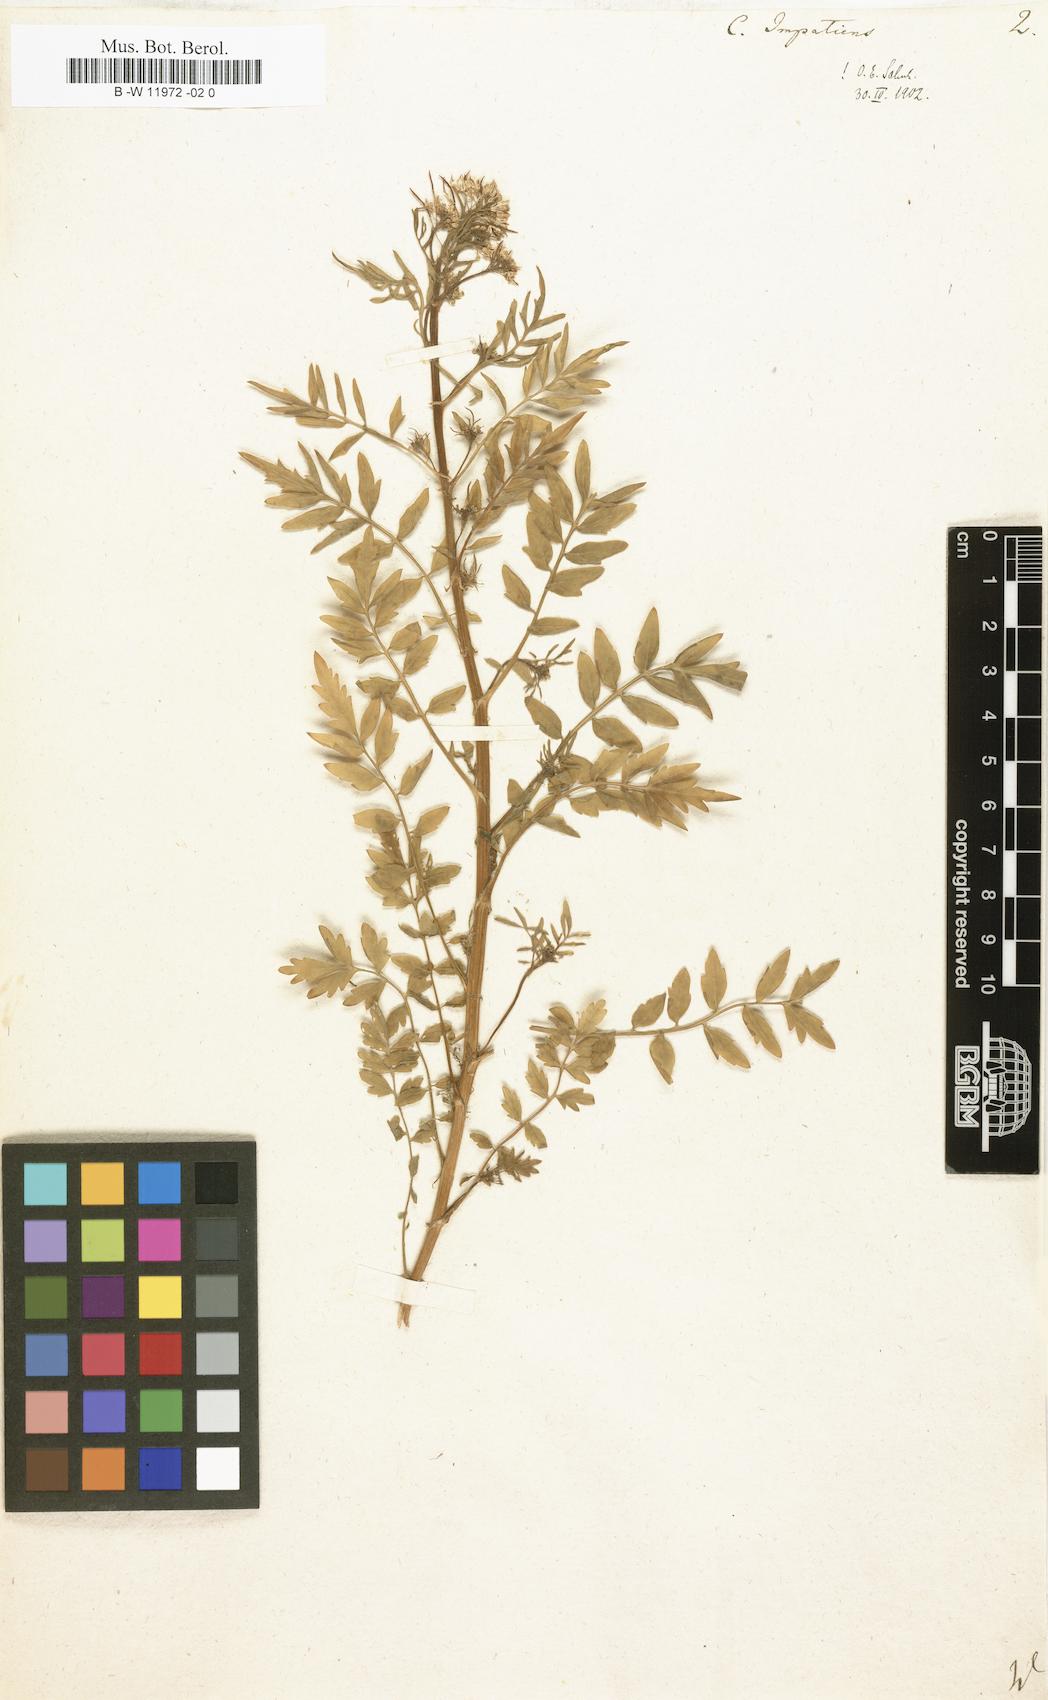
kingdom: Plantae
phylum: Tracheophyta
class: Magnoliopsida
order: Brassicales
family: Brassicaceae
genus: Cardamine
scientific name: Cardamine impatiens
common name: Narrow-leaved bitter-cress
